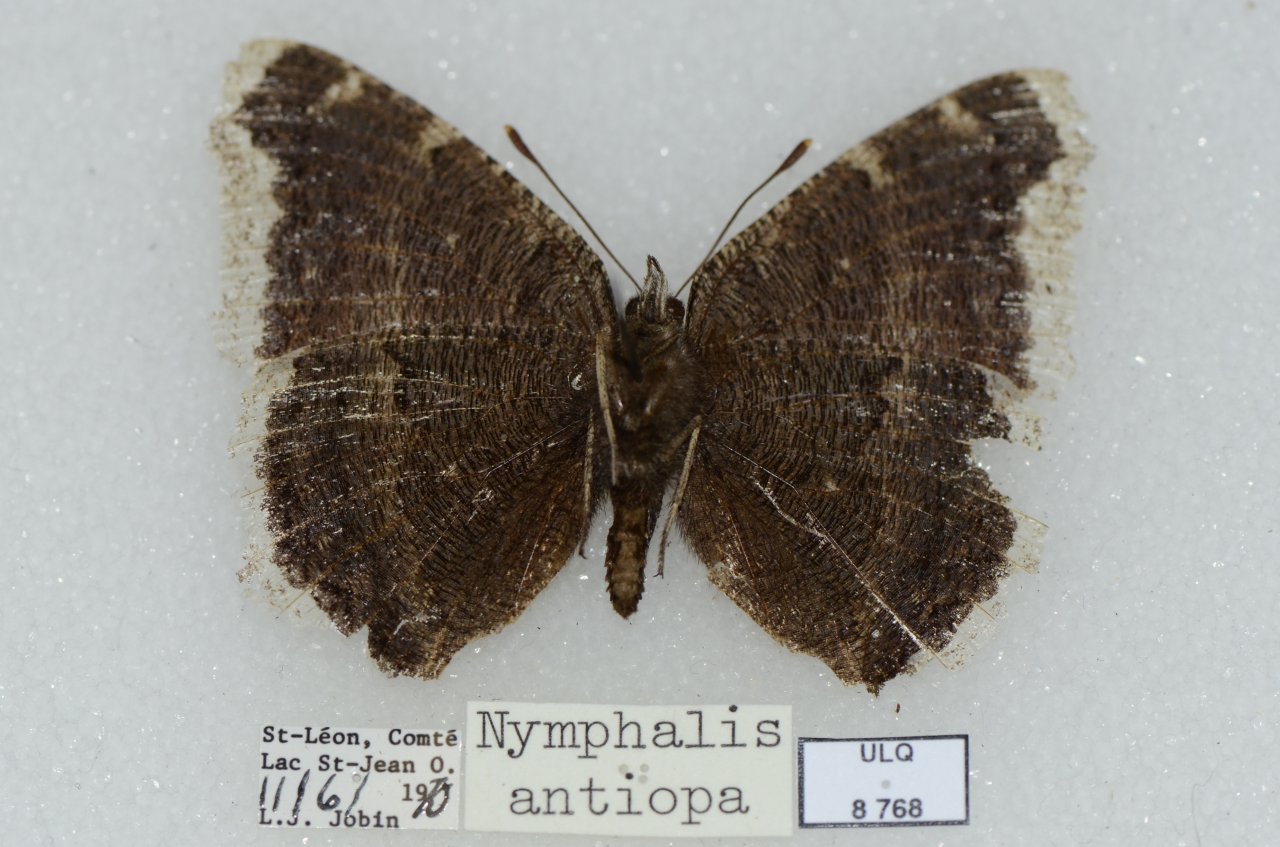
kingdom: Animalia
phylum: Arthropoda
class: Insecta
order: Lepidoptera
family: Nymphalidae
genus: Nymphalis
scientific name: Nymphalis antiopa
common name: Mourning Cloak
